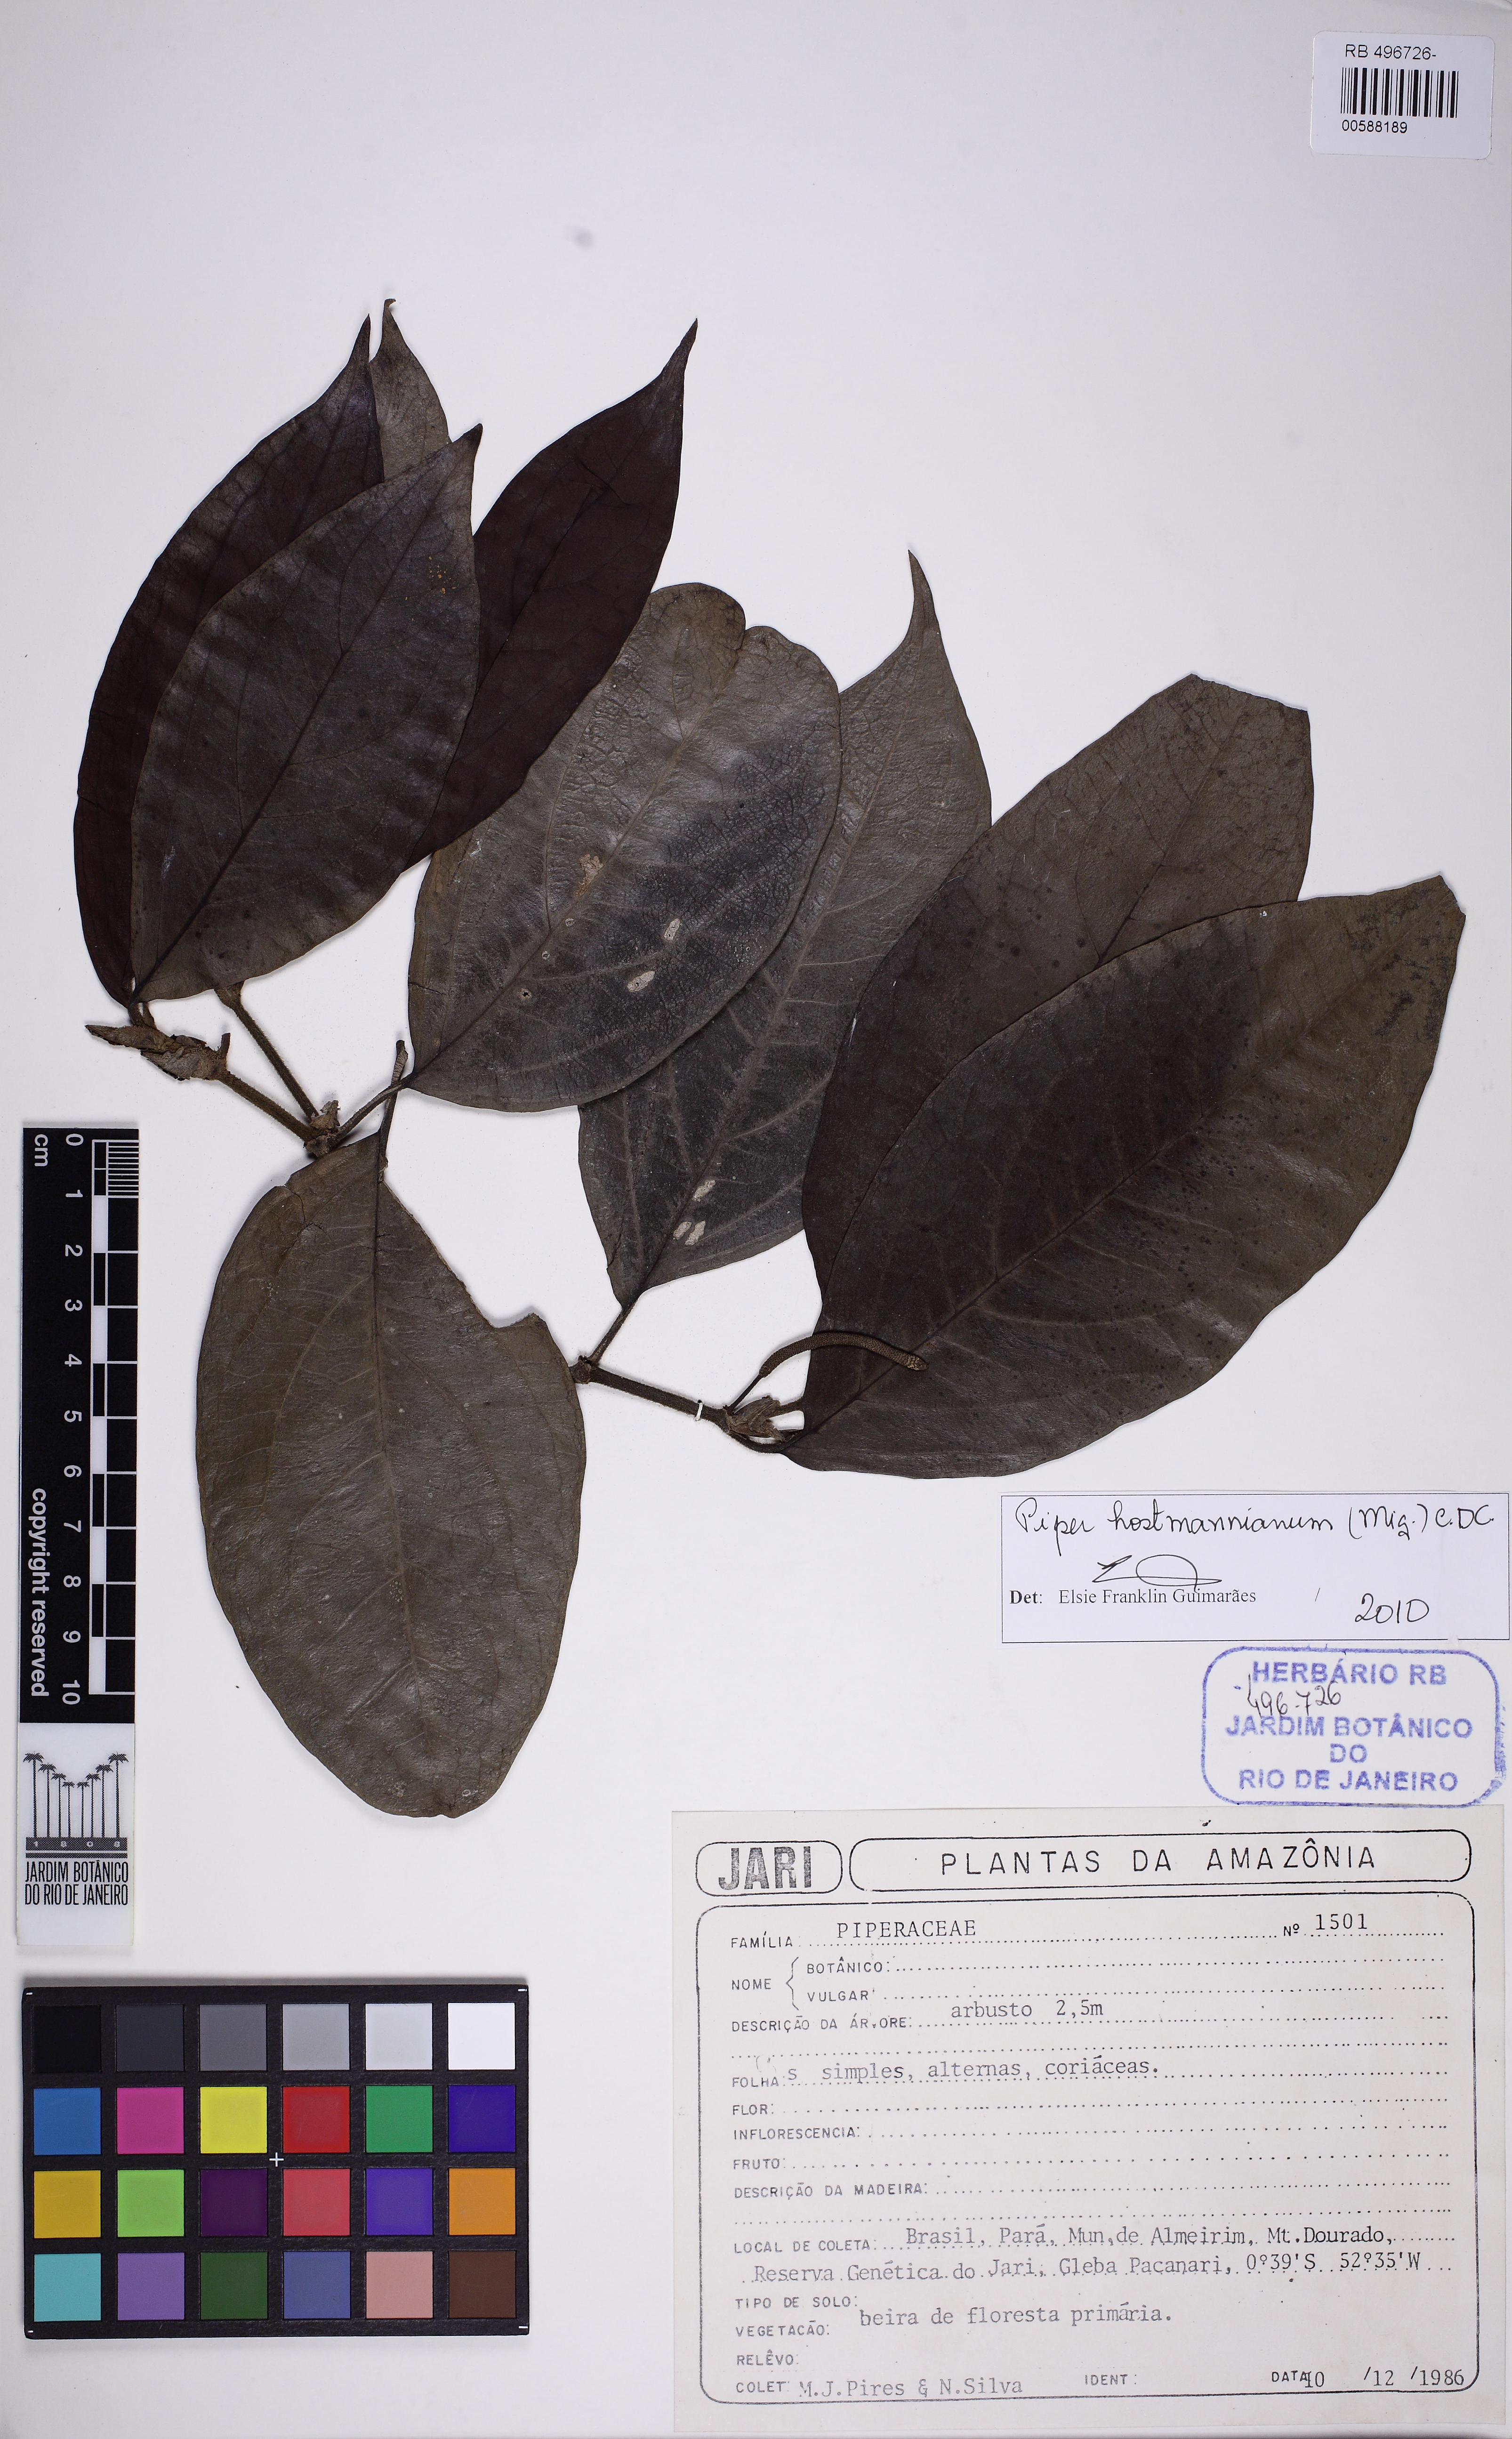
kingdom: Plantae
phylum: Tracheophyta
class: Magnoliopsida
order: Piperales
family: Piperaceae
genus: Piper
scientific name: Piper hostmannianum
